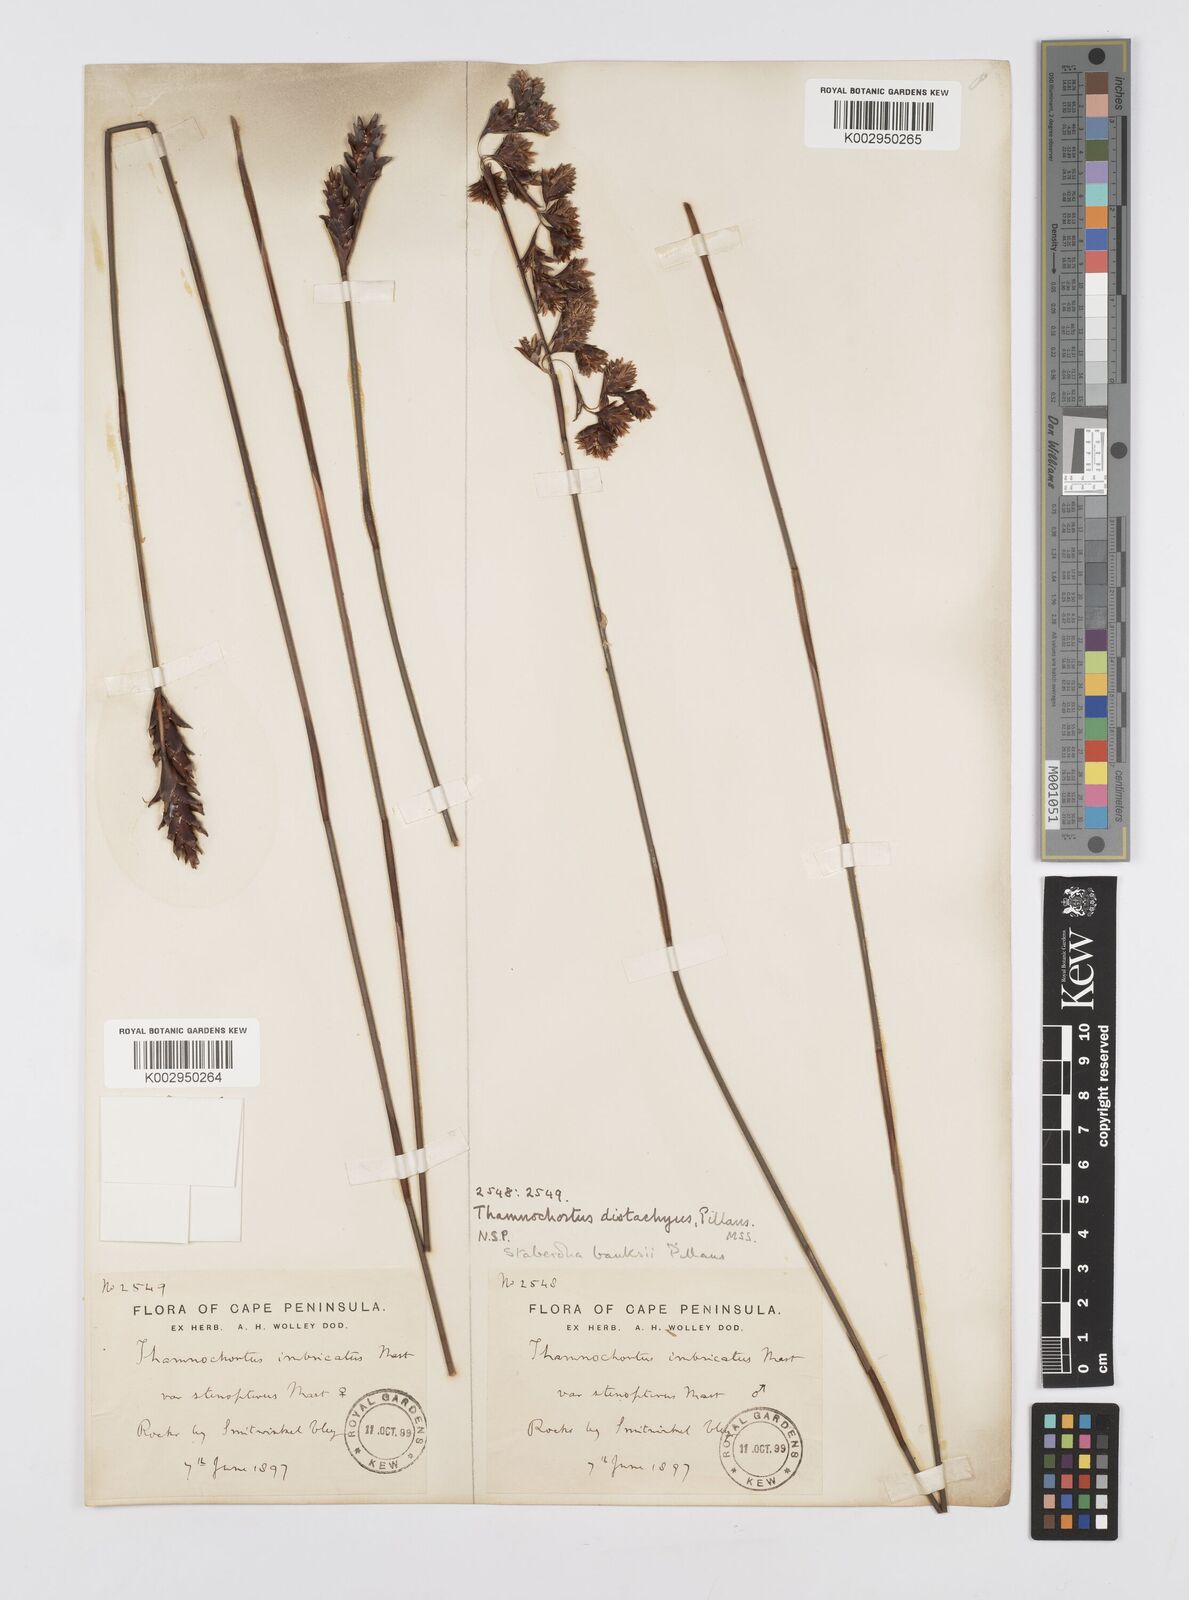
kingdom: Plantae
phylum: Tracheophyta
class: Liliopsida
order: Poales
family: Restionaceae
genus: Staberoha
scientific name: Staberoha banksii
